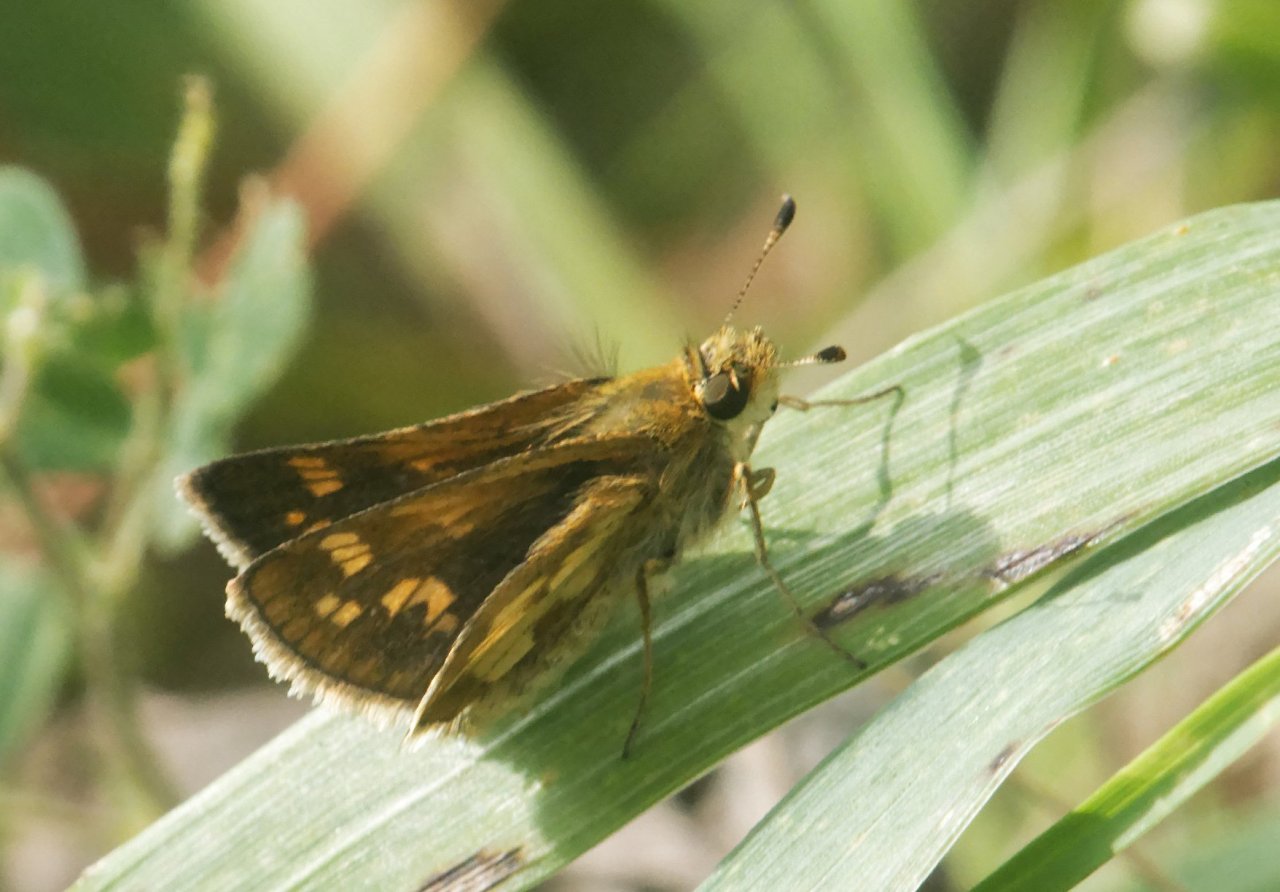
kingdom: Animalia
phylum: Arthropoda
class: Insecta
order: Lepidoptera
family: Hesperiidae
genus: Polites
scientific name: Polites coras
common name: Peck's Skipper
